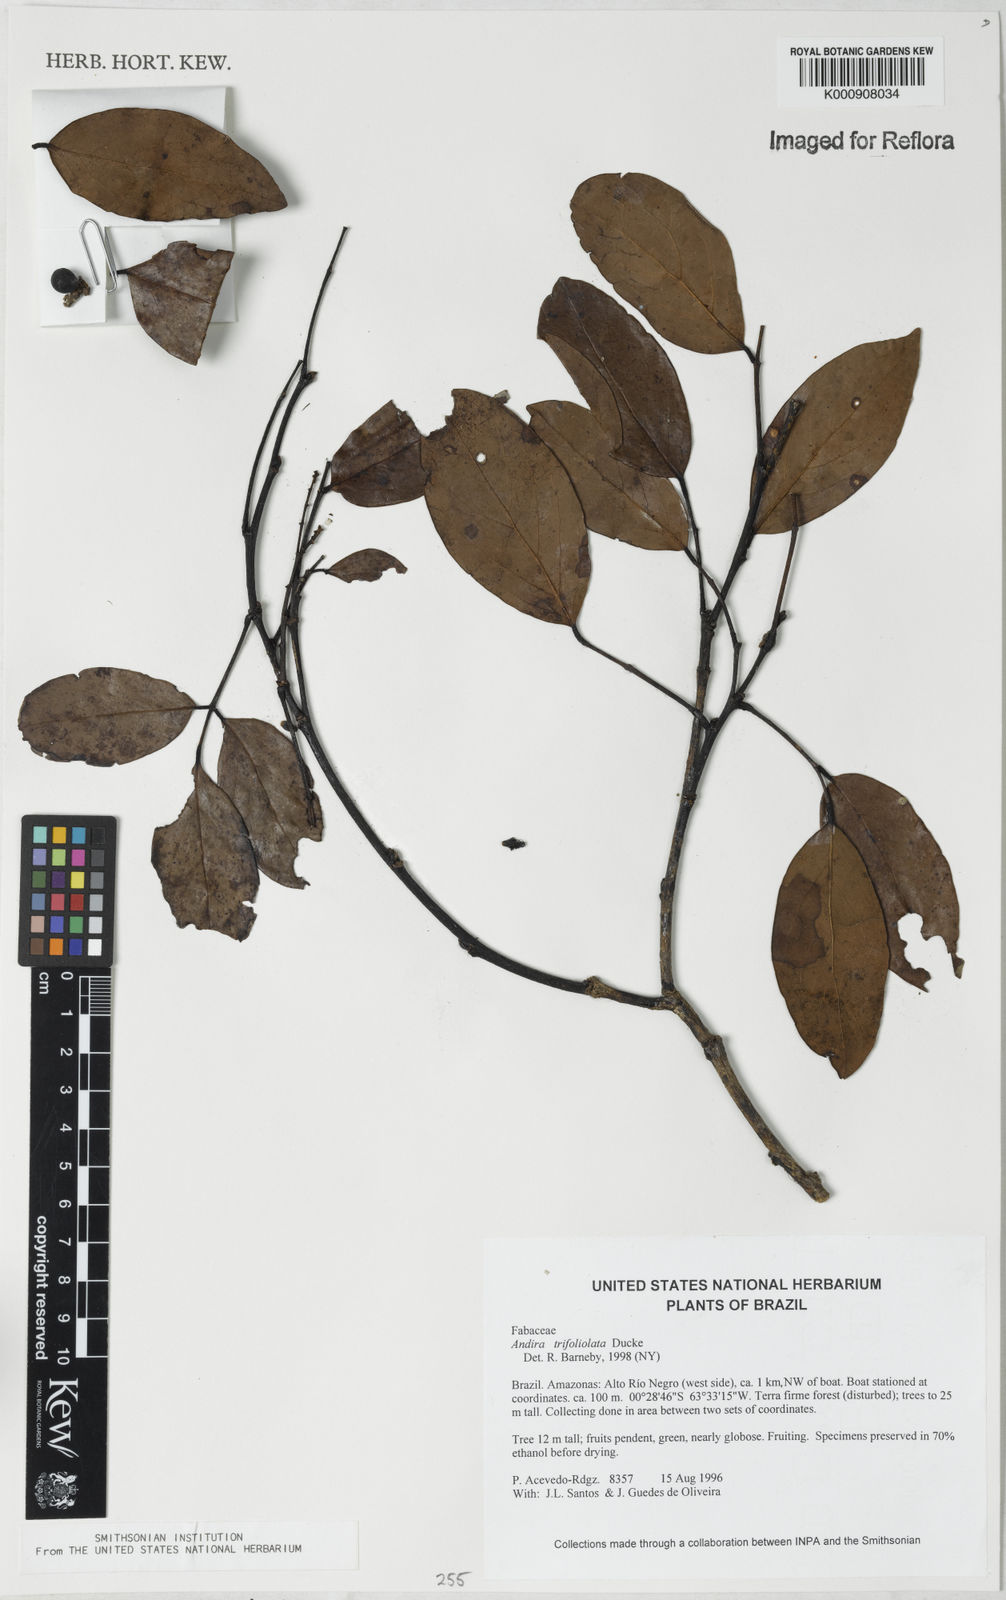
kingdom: Plantae
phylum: Tracheophyta
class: Magnoliopsida
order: Fabales
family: Fabaceae
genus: Andira
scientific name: Andira trifoliolata
